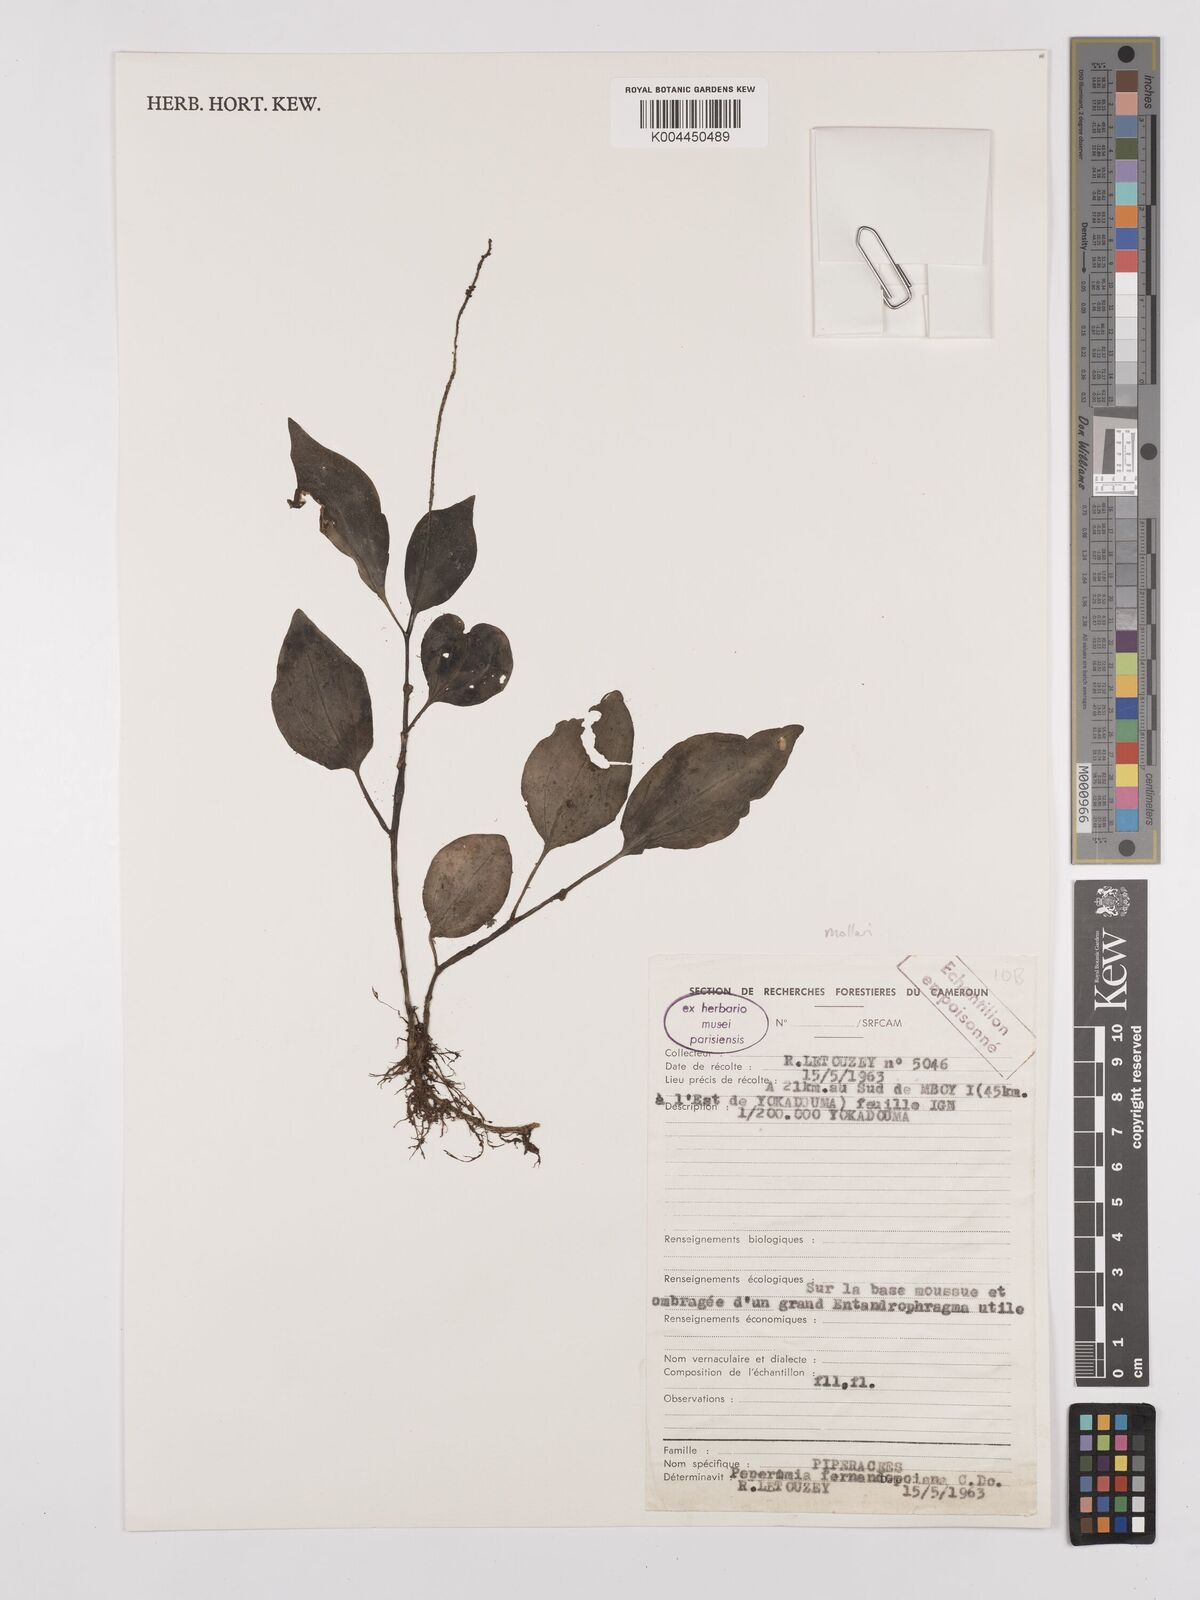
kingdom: Plantae
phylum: Tracheophyta
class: Magnoliopsida
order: Piperales
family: Piperaceae
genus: Peperomia
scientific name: Peperomia fernandopoiana
